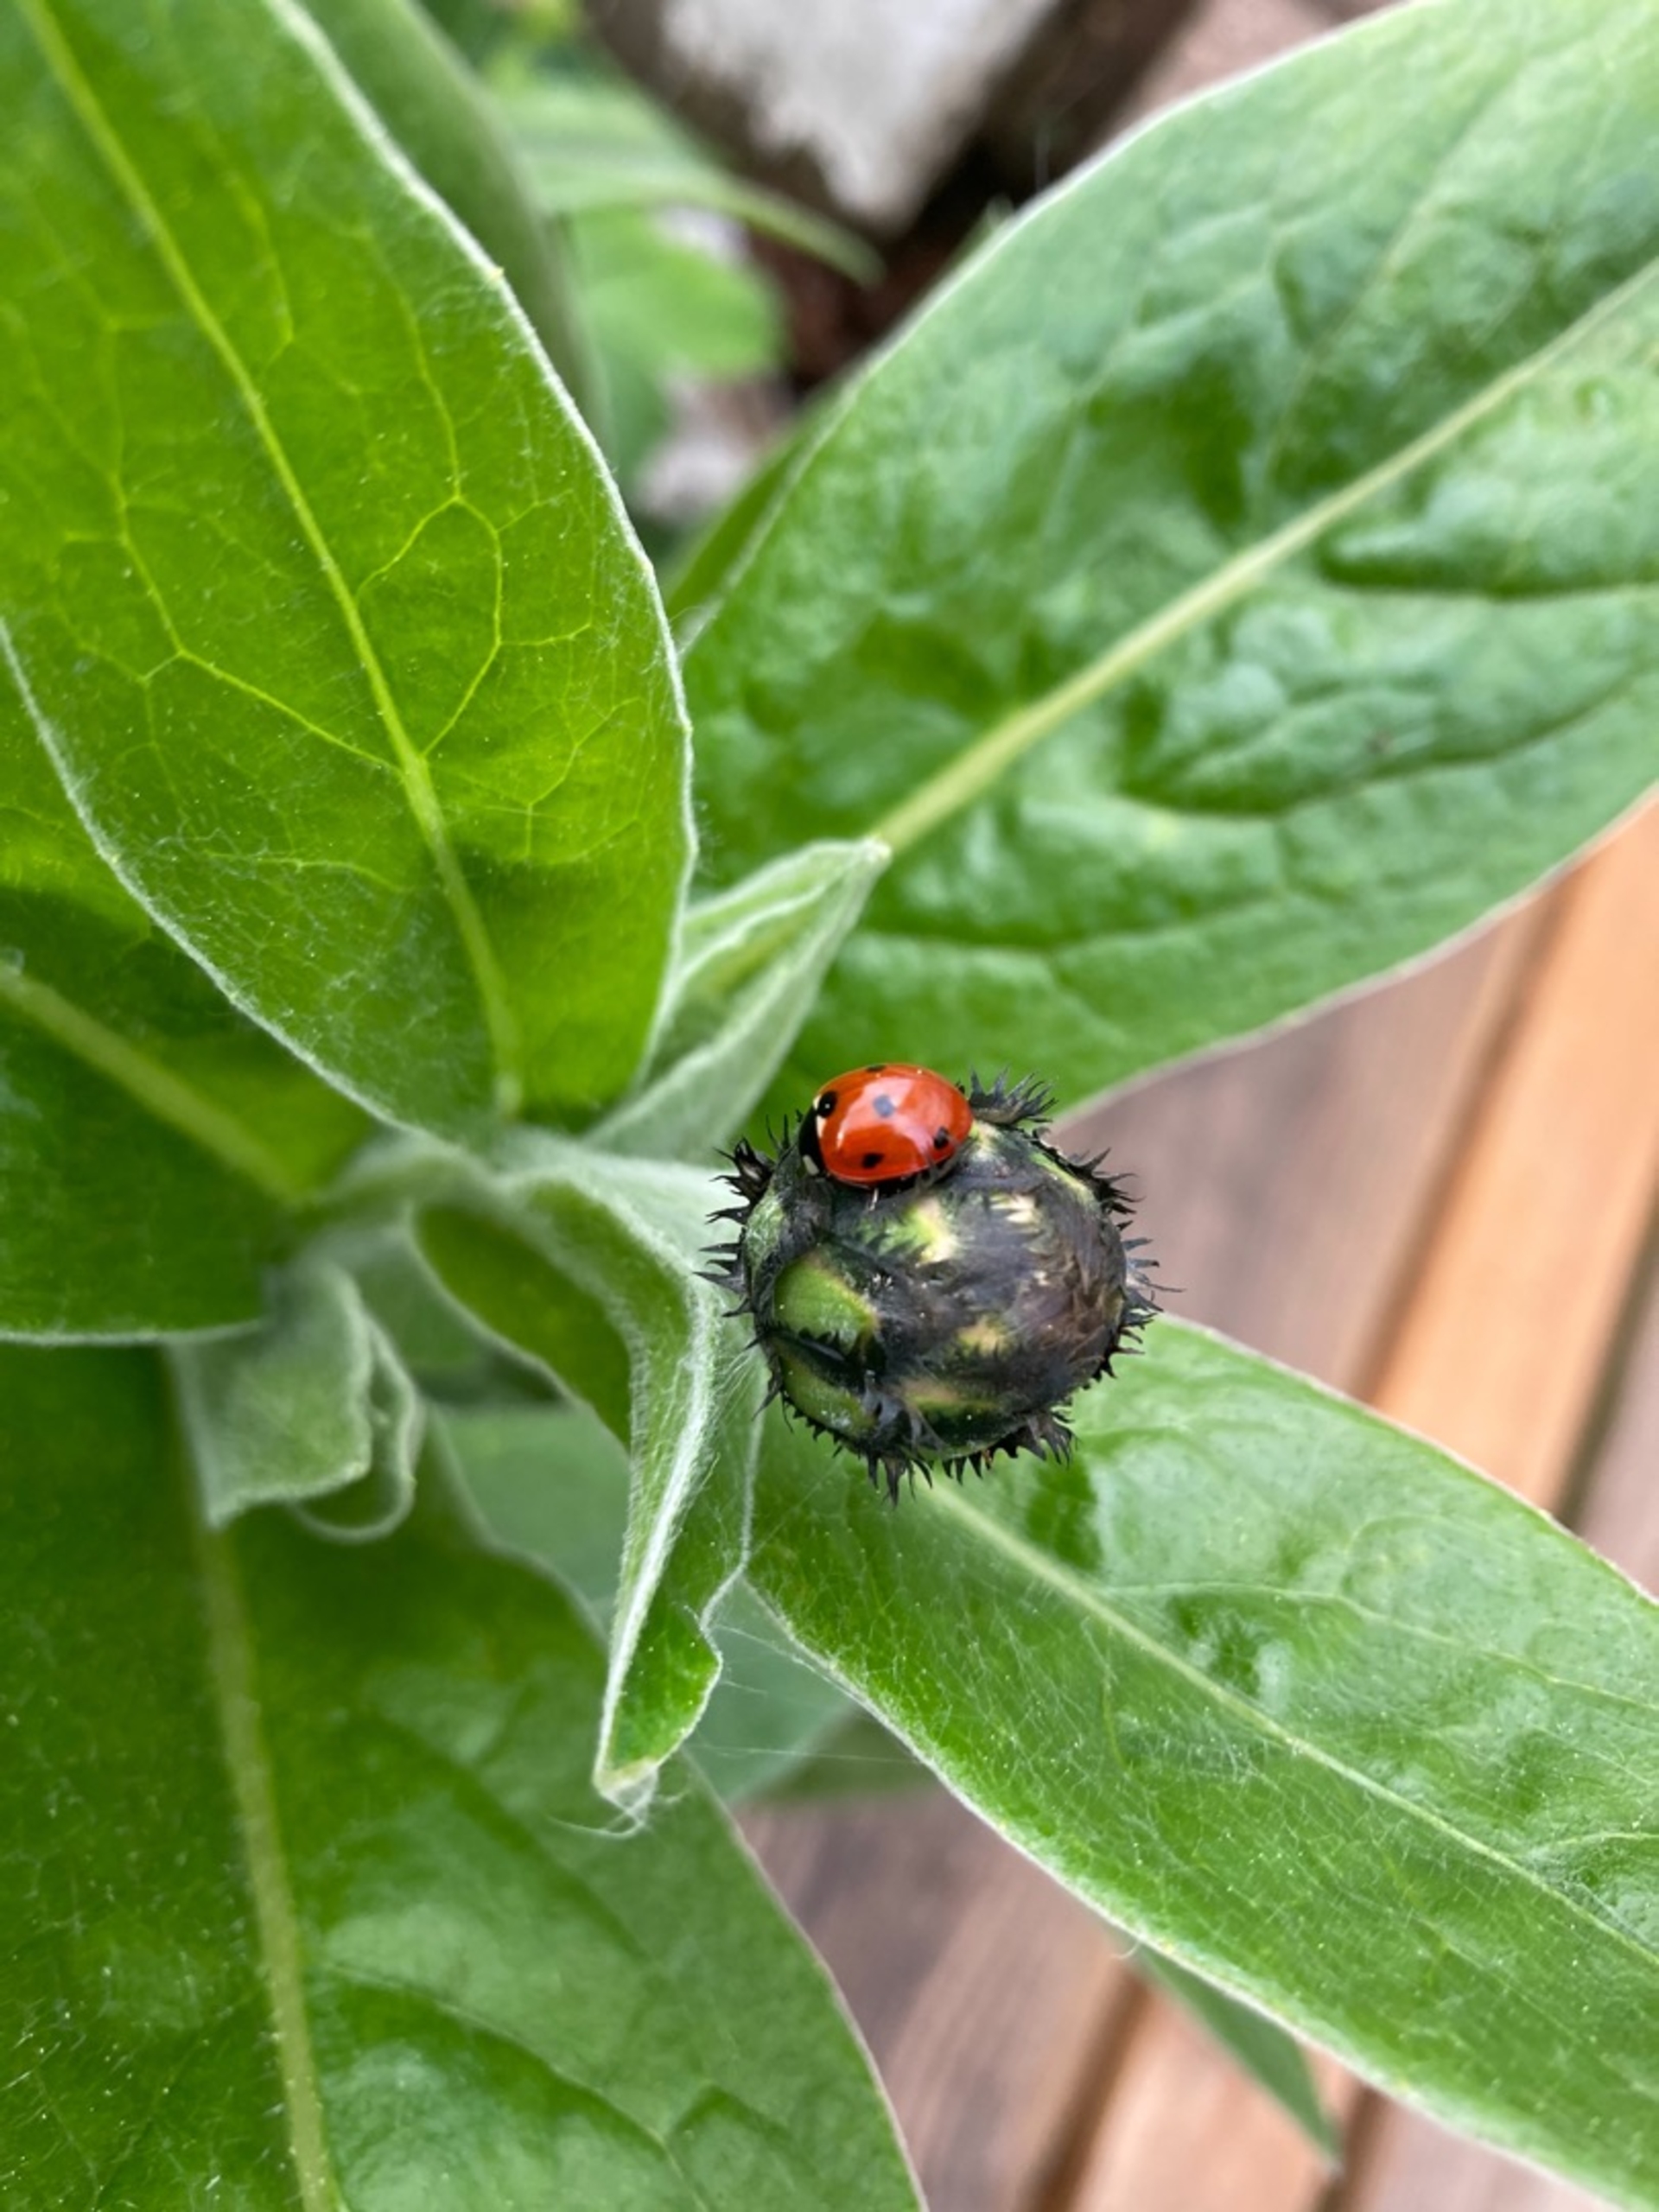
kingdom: Animalia
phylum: Arthropoda
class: Insecta
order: Coleoptera
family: Coccinellidae
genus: Coccinella
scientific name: Coccinella septempunctata
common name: Syvplettet mariehøne
